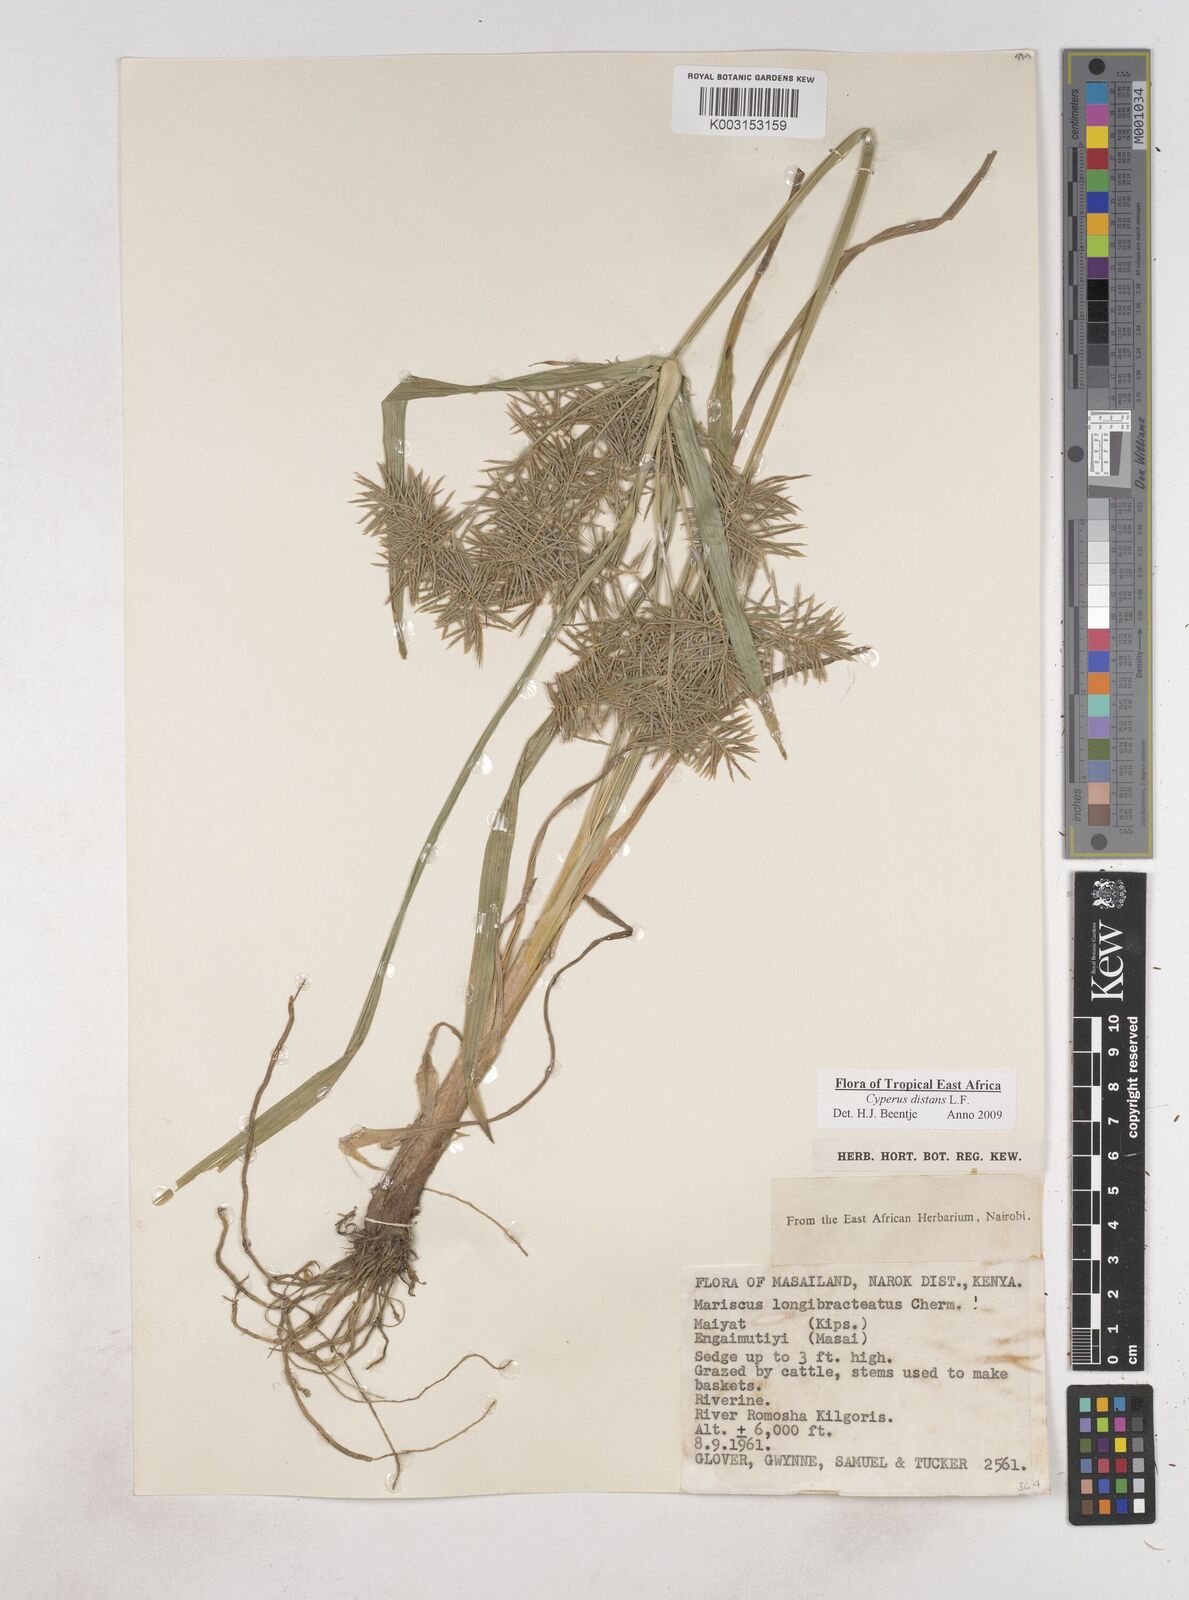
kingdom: Plantae
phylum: Tracheophyta
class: Liliopsida
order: Poales
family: Cyperaceae
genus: Cyperus
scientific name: Cyperus distans
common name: Slender cyperus
